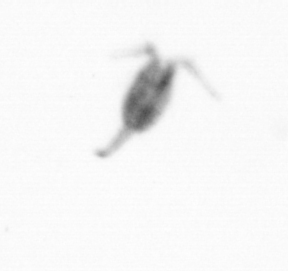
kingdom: Animalia
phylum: Arthropoda
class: Copepoda
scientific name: Copepoda
